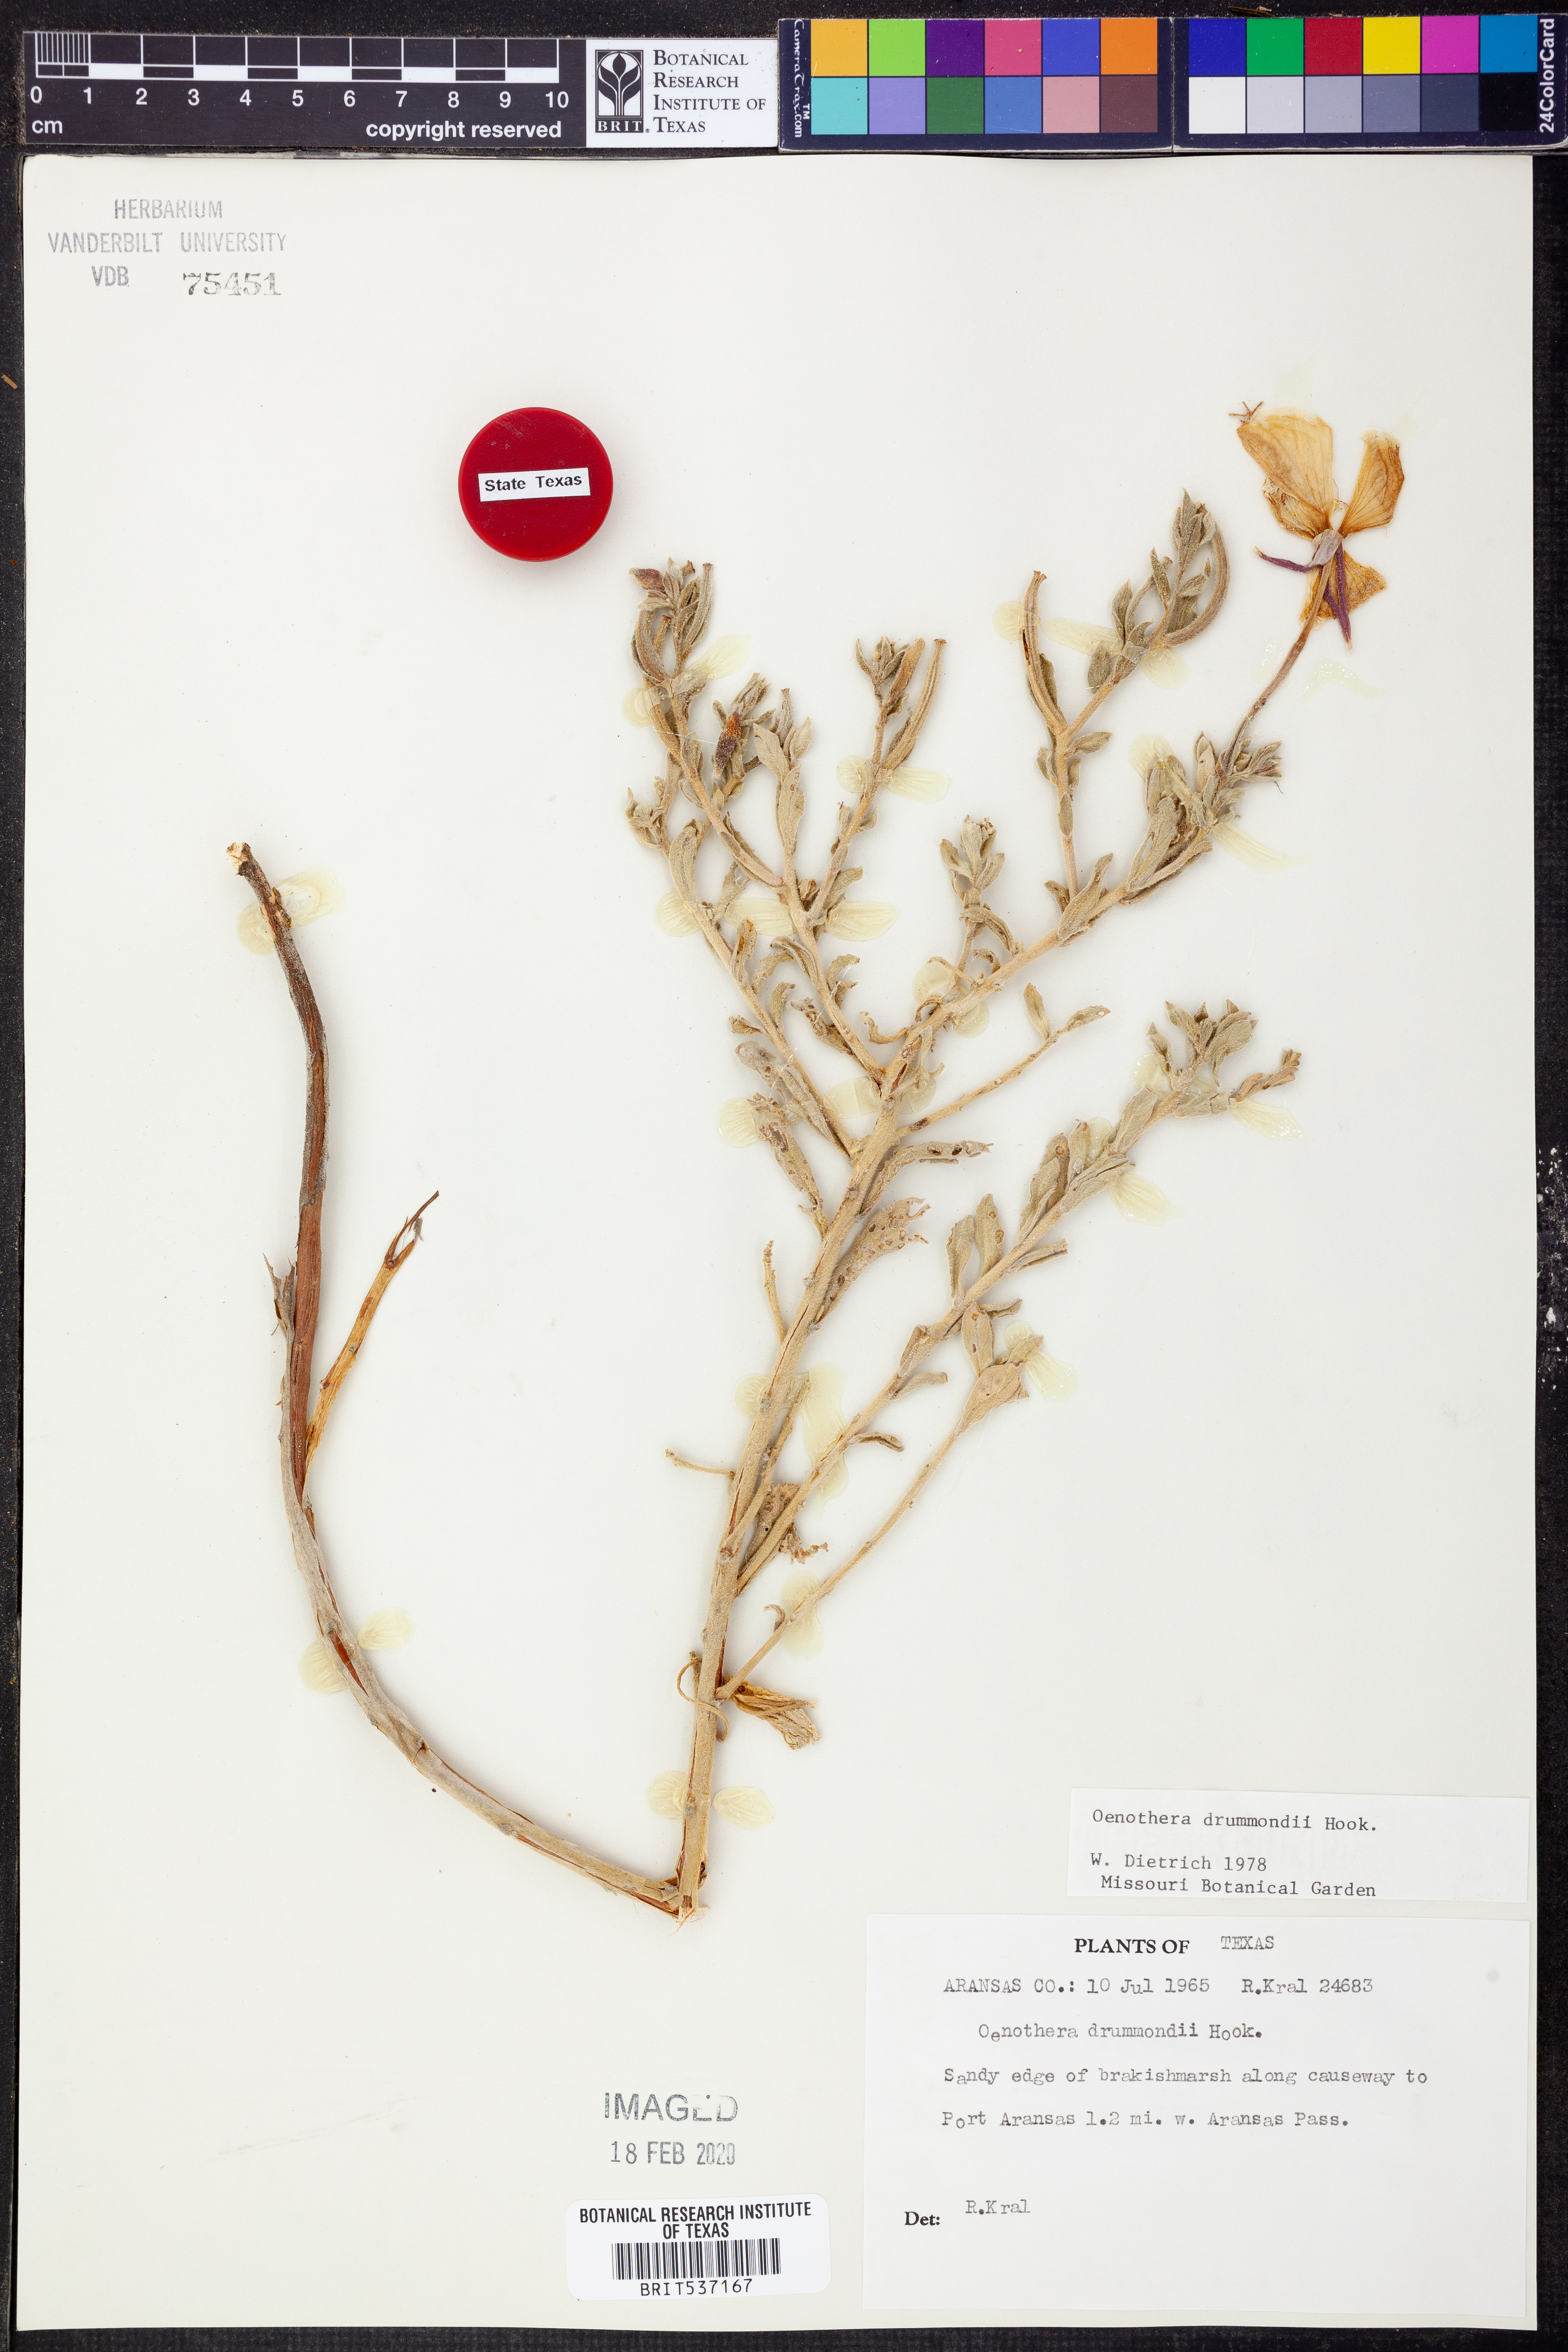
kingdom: Plantae
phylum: Tracheophyta
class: Magnoliopsida
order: Myrtales
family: Onagraceae
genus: Oenothera
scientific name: Oenothera drummondii
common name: Beach evening-primrose
